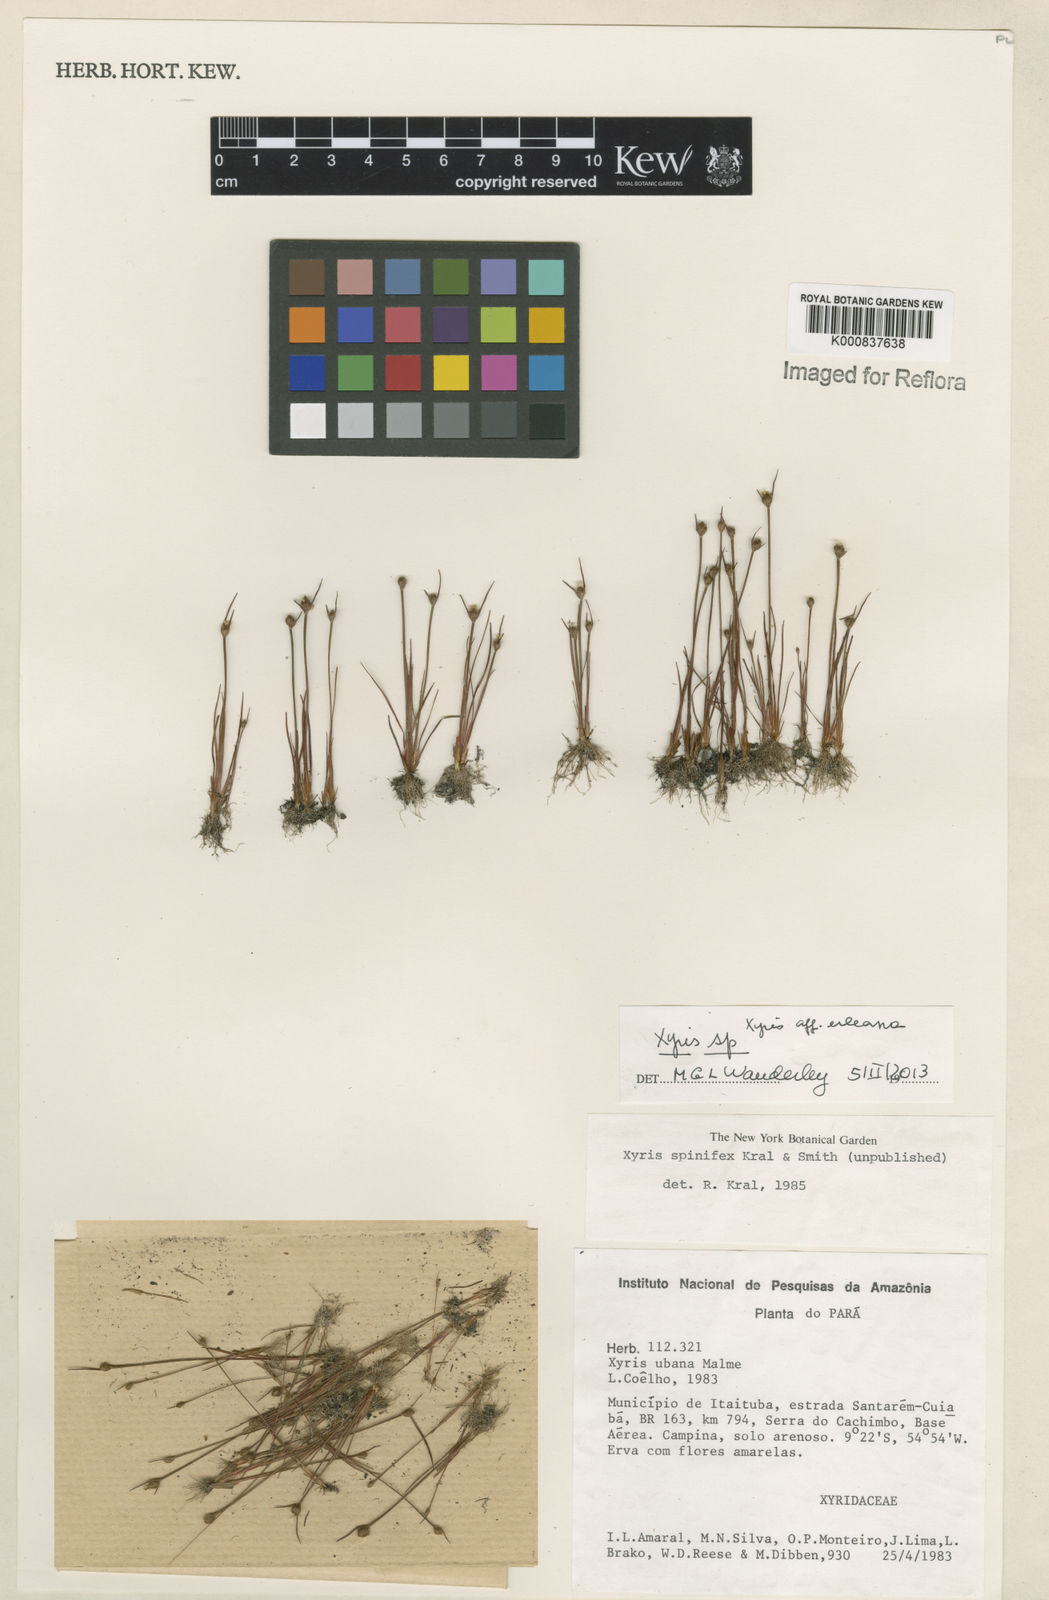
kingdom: Plantae
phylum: Tracheophyta
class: Liliopsida
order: Poales
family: Xyridaceae
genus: Xyris
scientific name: Xyris uleana
